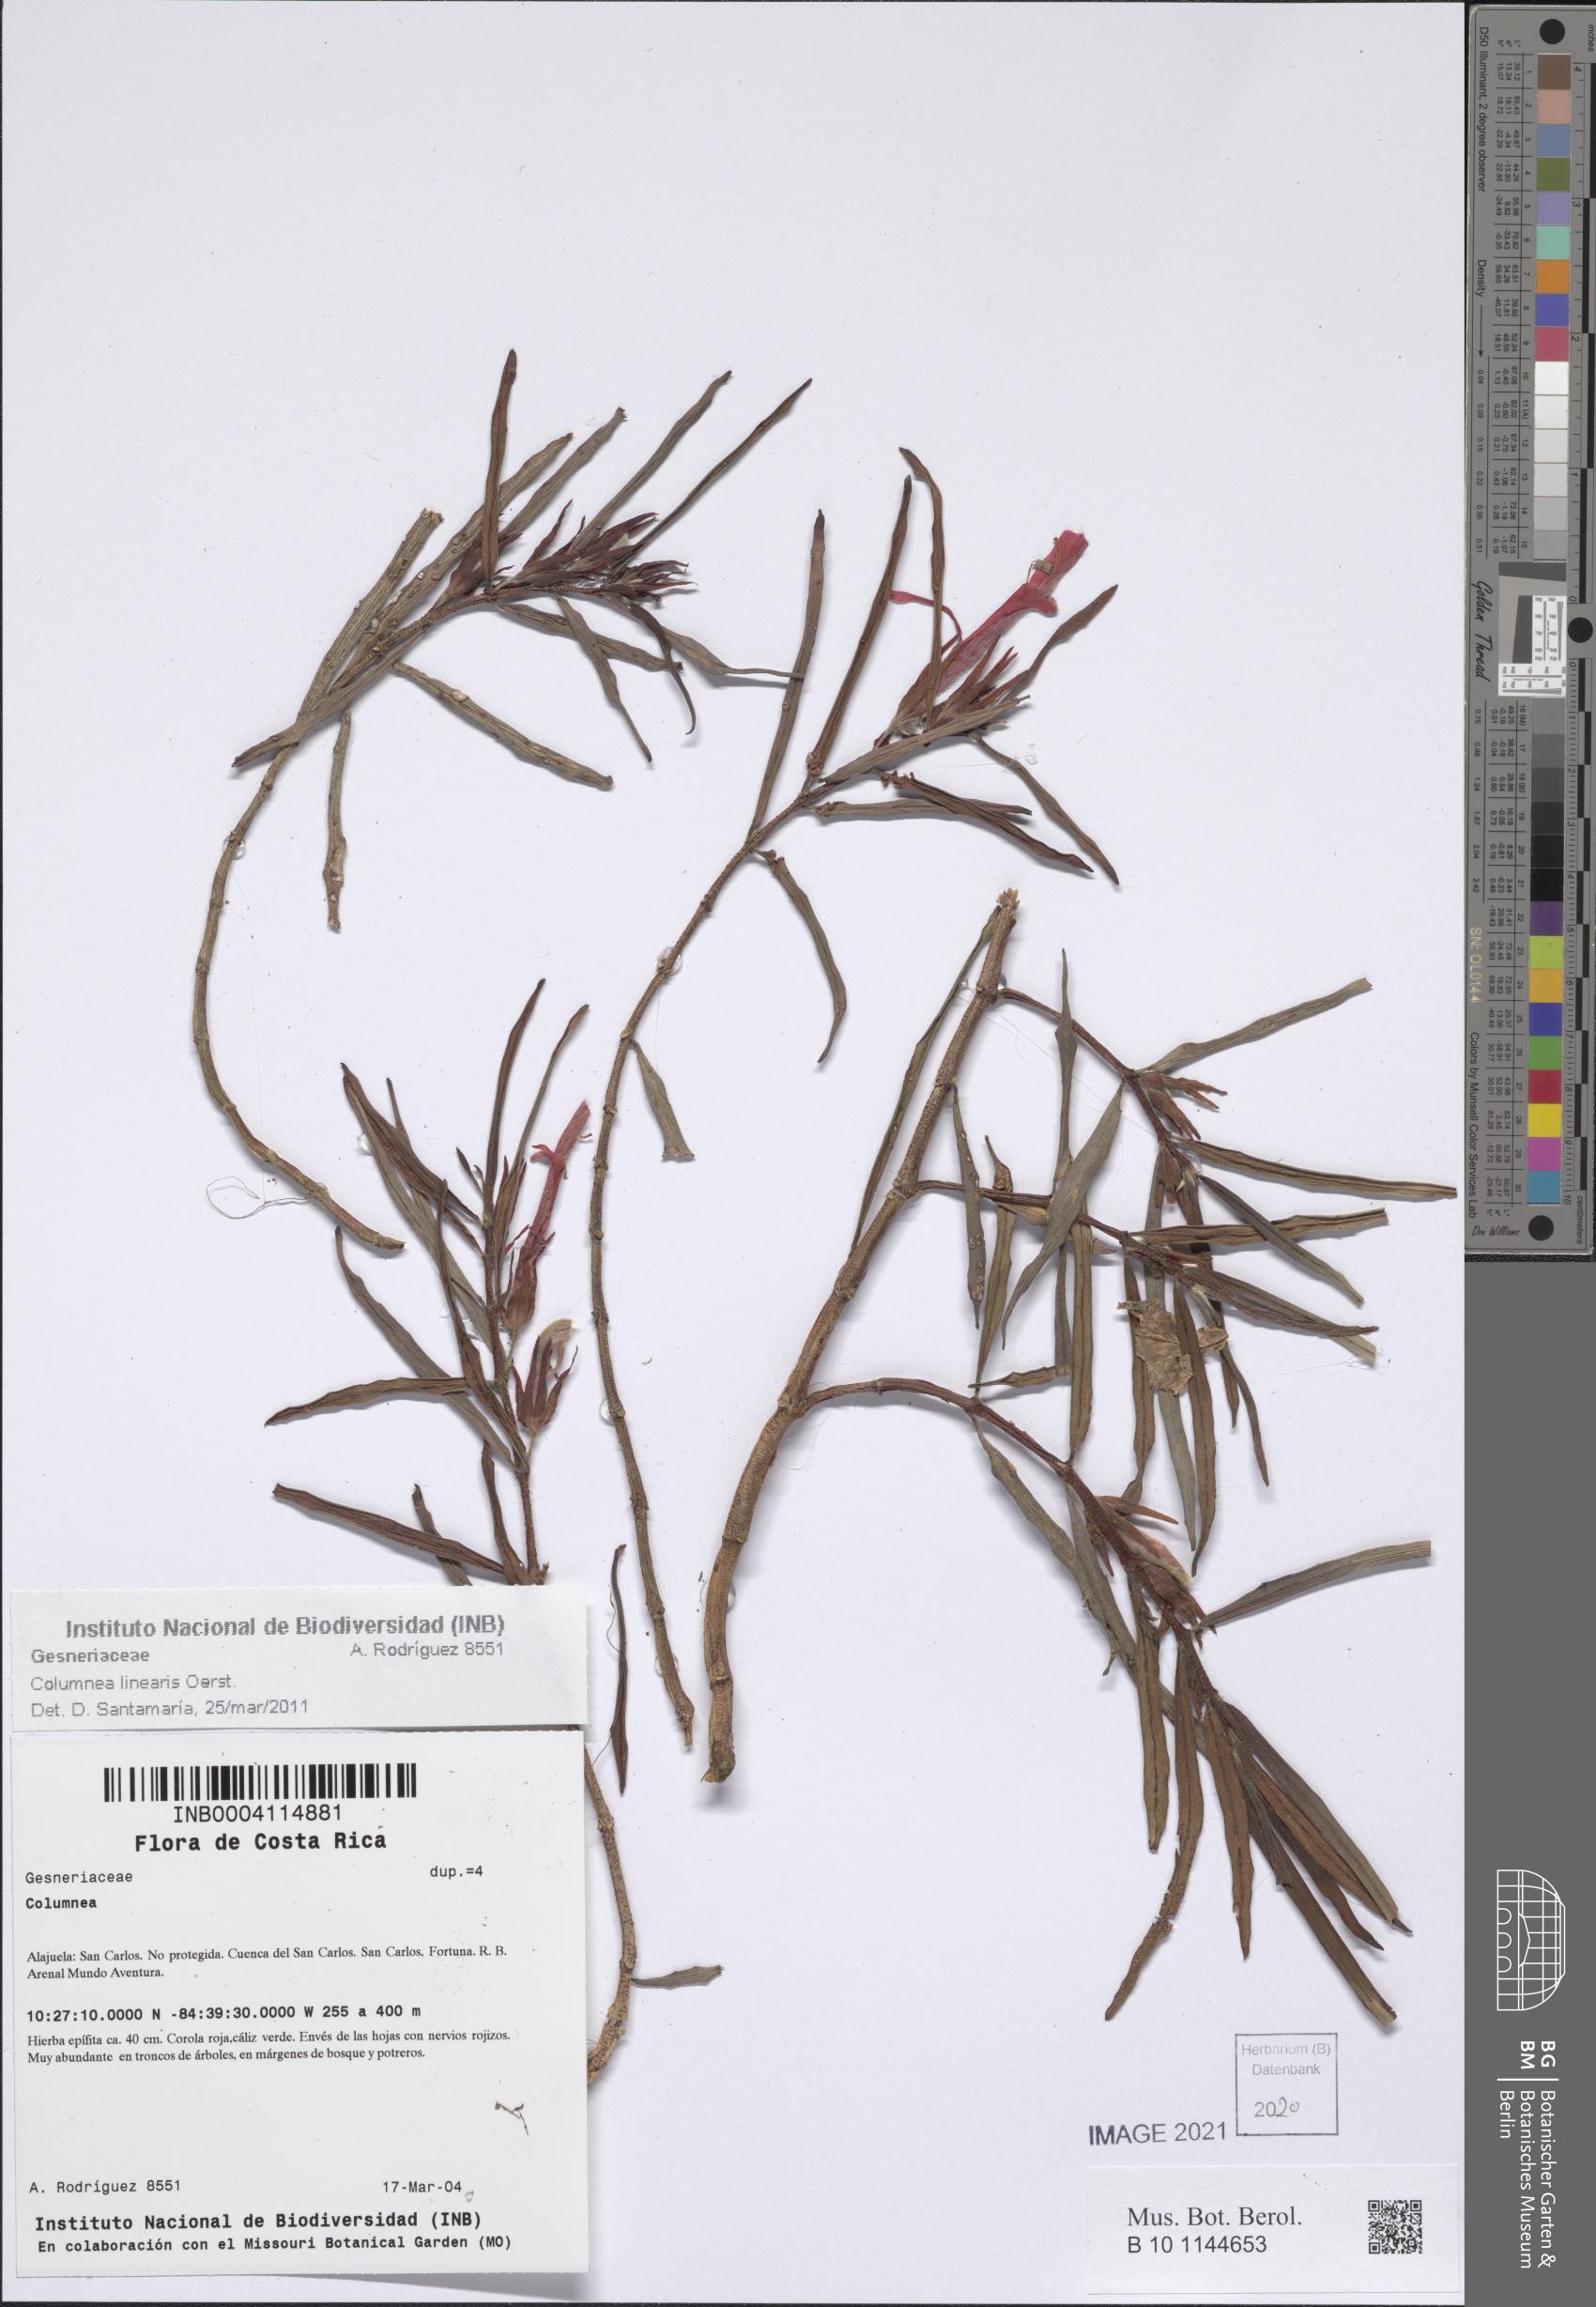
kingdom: Plantae
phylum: Tracheophyta
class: Magnoliopsida
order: Lamiales
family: Gesneriaceae
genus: Columnea
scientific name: Columnea
